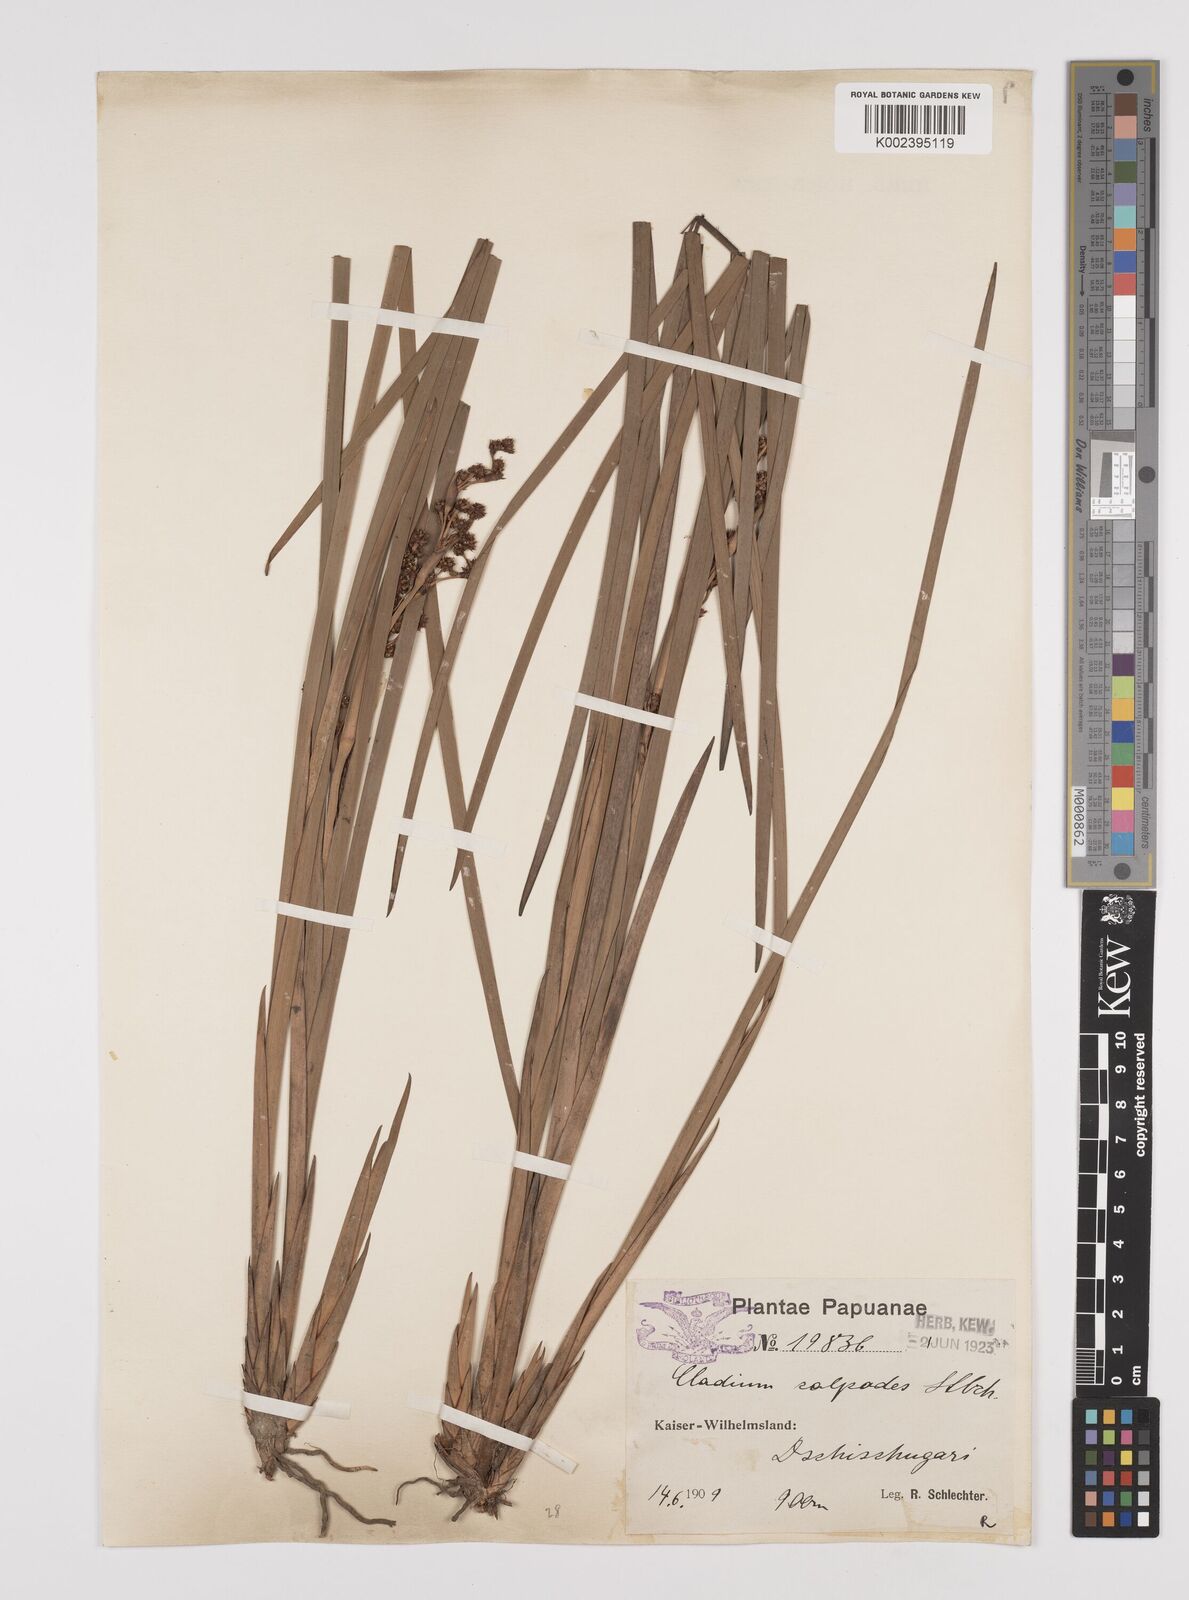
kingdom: Plantae
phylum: Tracheophyta
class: Liliopsida
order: Poales
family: Cyperaceae
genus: Machaerina
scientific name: Machaerina glomerata
